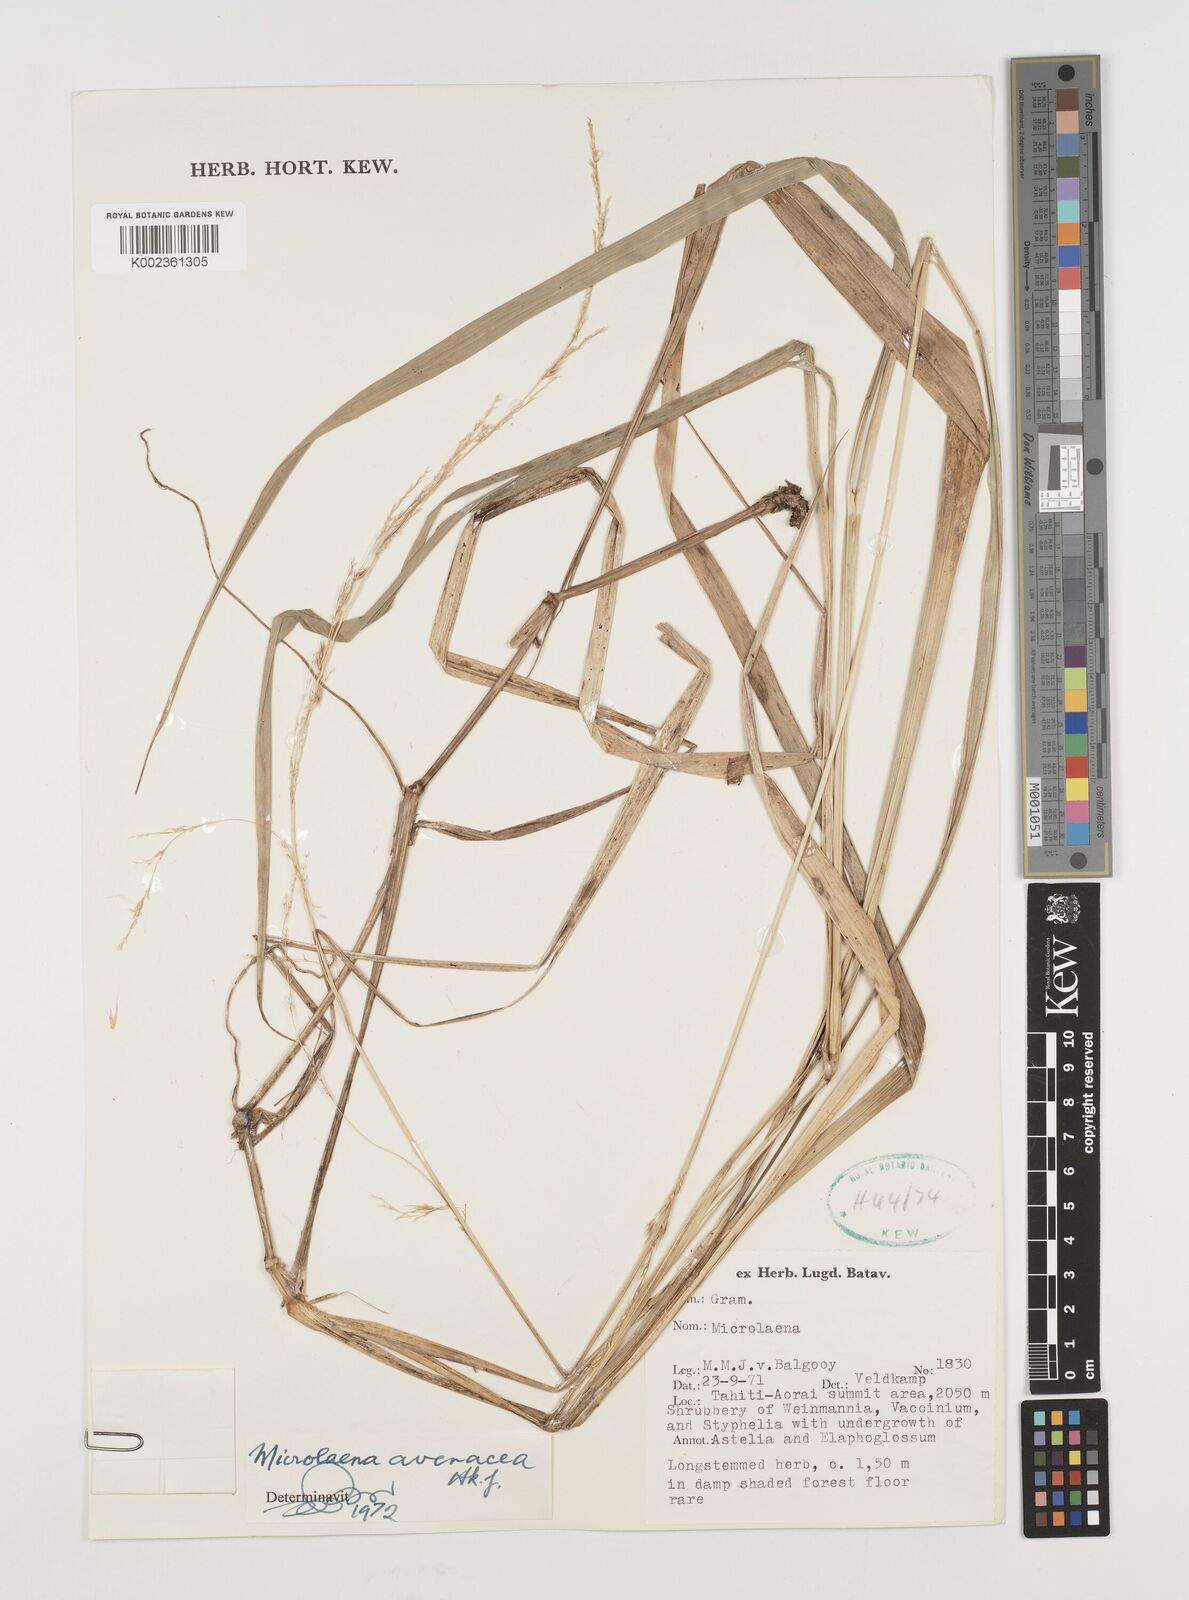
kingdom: Plantae
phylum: Tracheophyta
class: Liliopsida
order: Poales
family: Poaceae
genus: Ehrharta
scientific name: Ehrharta diplax
